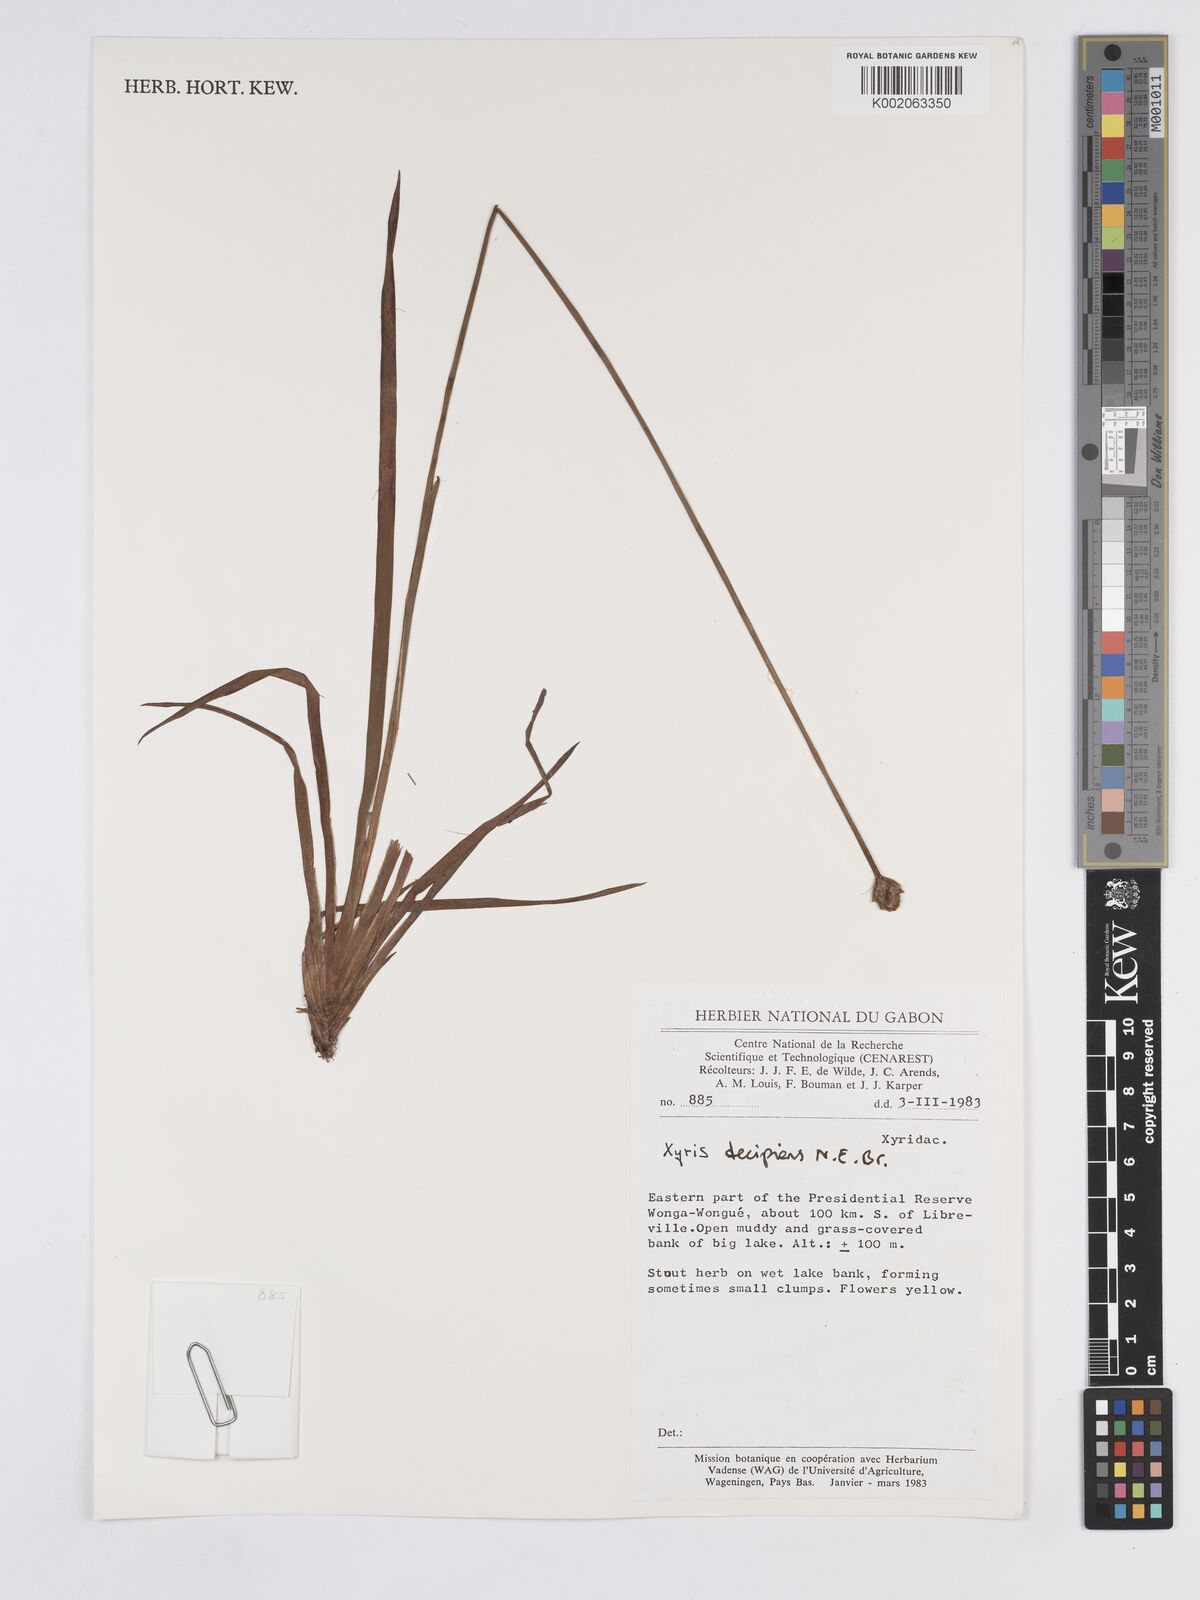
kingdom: Plantae
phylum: Tracheophyta
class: Liliopsida
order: Poales
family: Xyridaceae
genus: Xyris
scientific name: Xyris decipiens
